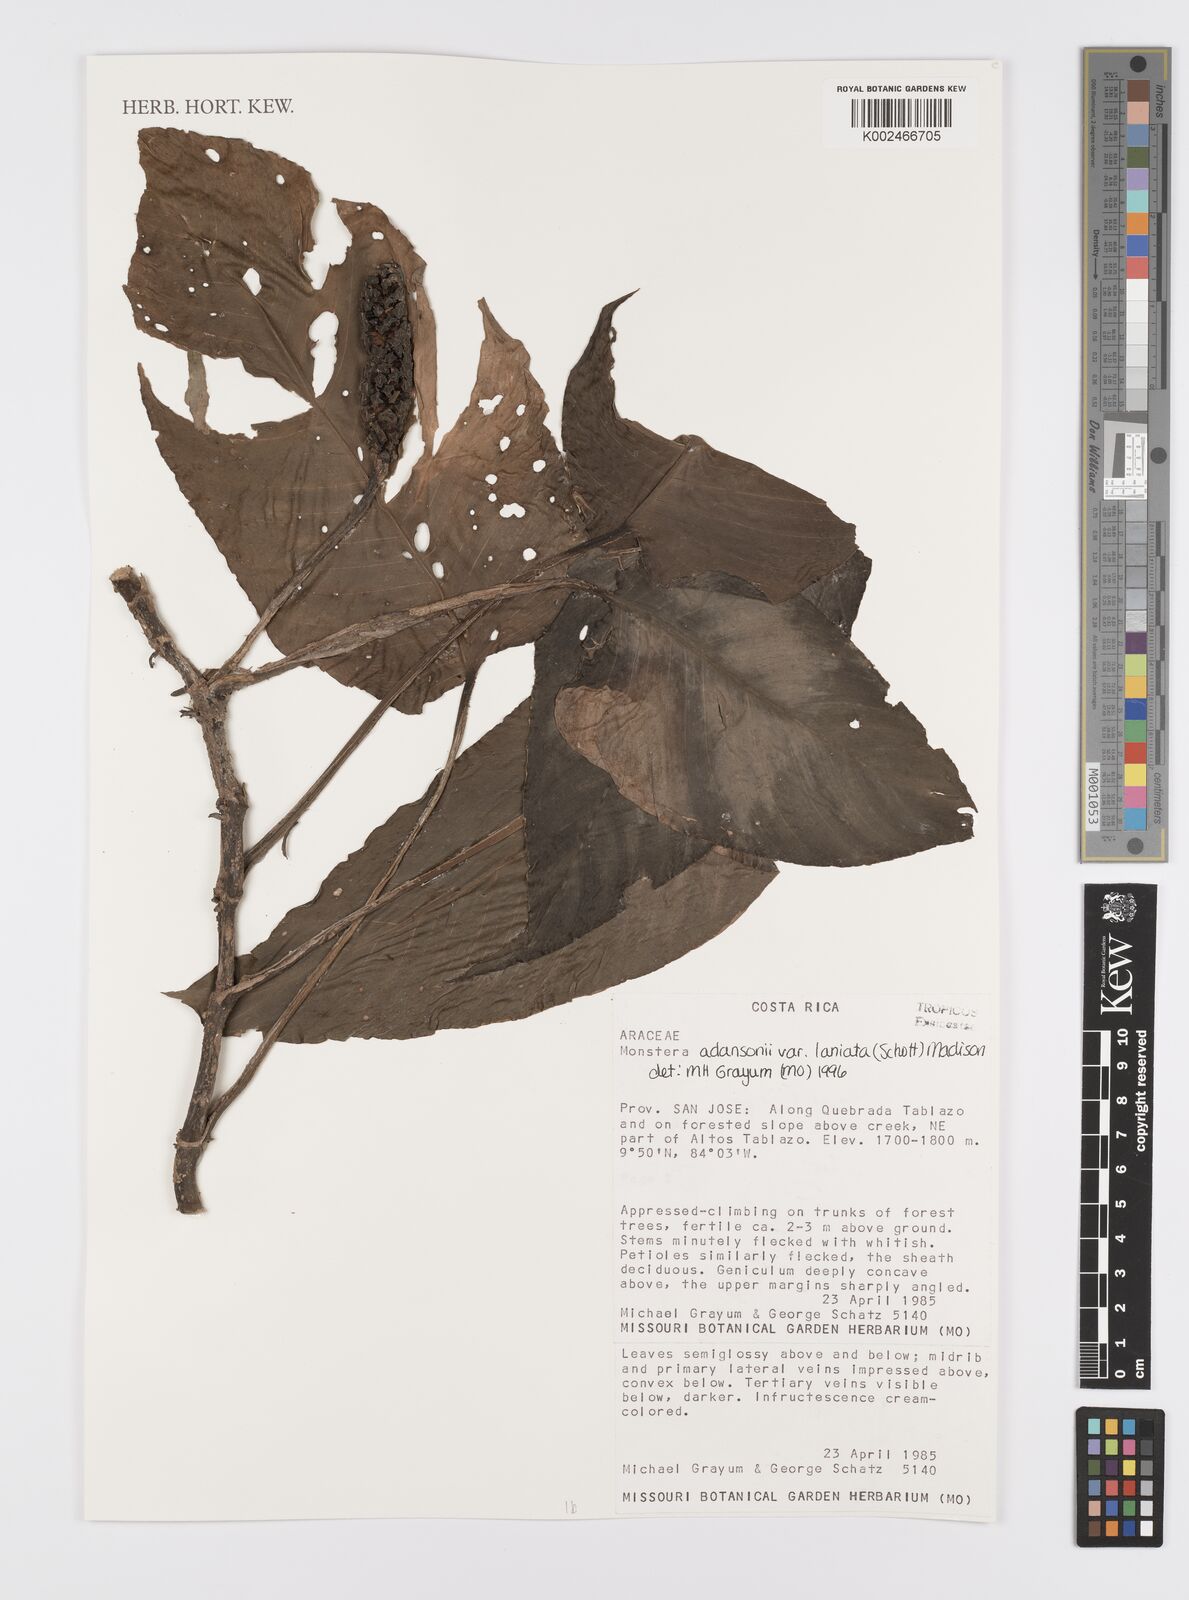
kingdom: Plantae
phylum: Tracheophyta
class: Liliopsida
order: Alismatales
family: Araceae
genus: Monstera
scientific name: Monstera adansonii
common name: Tarovine
